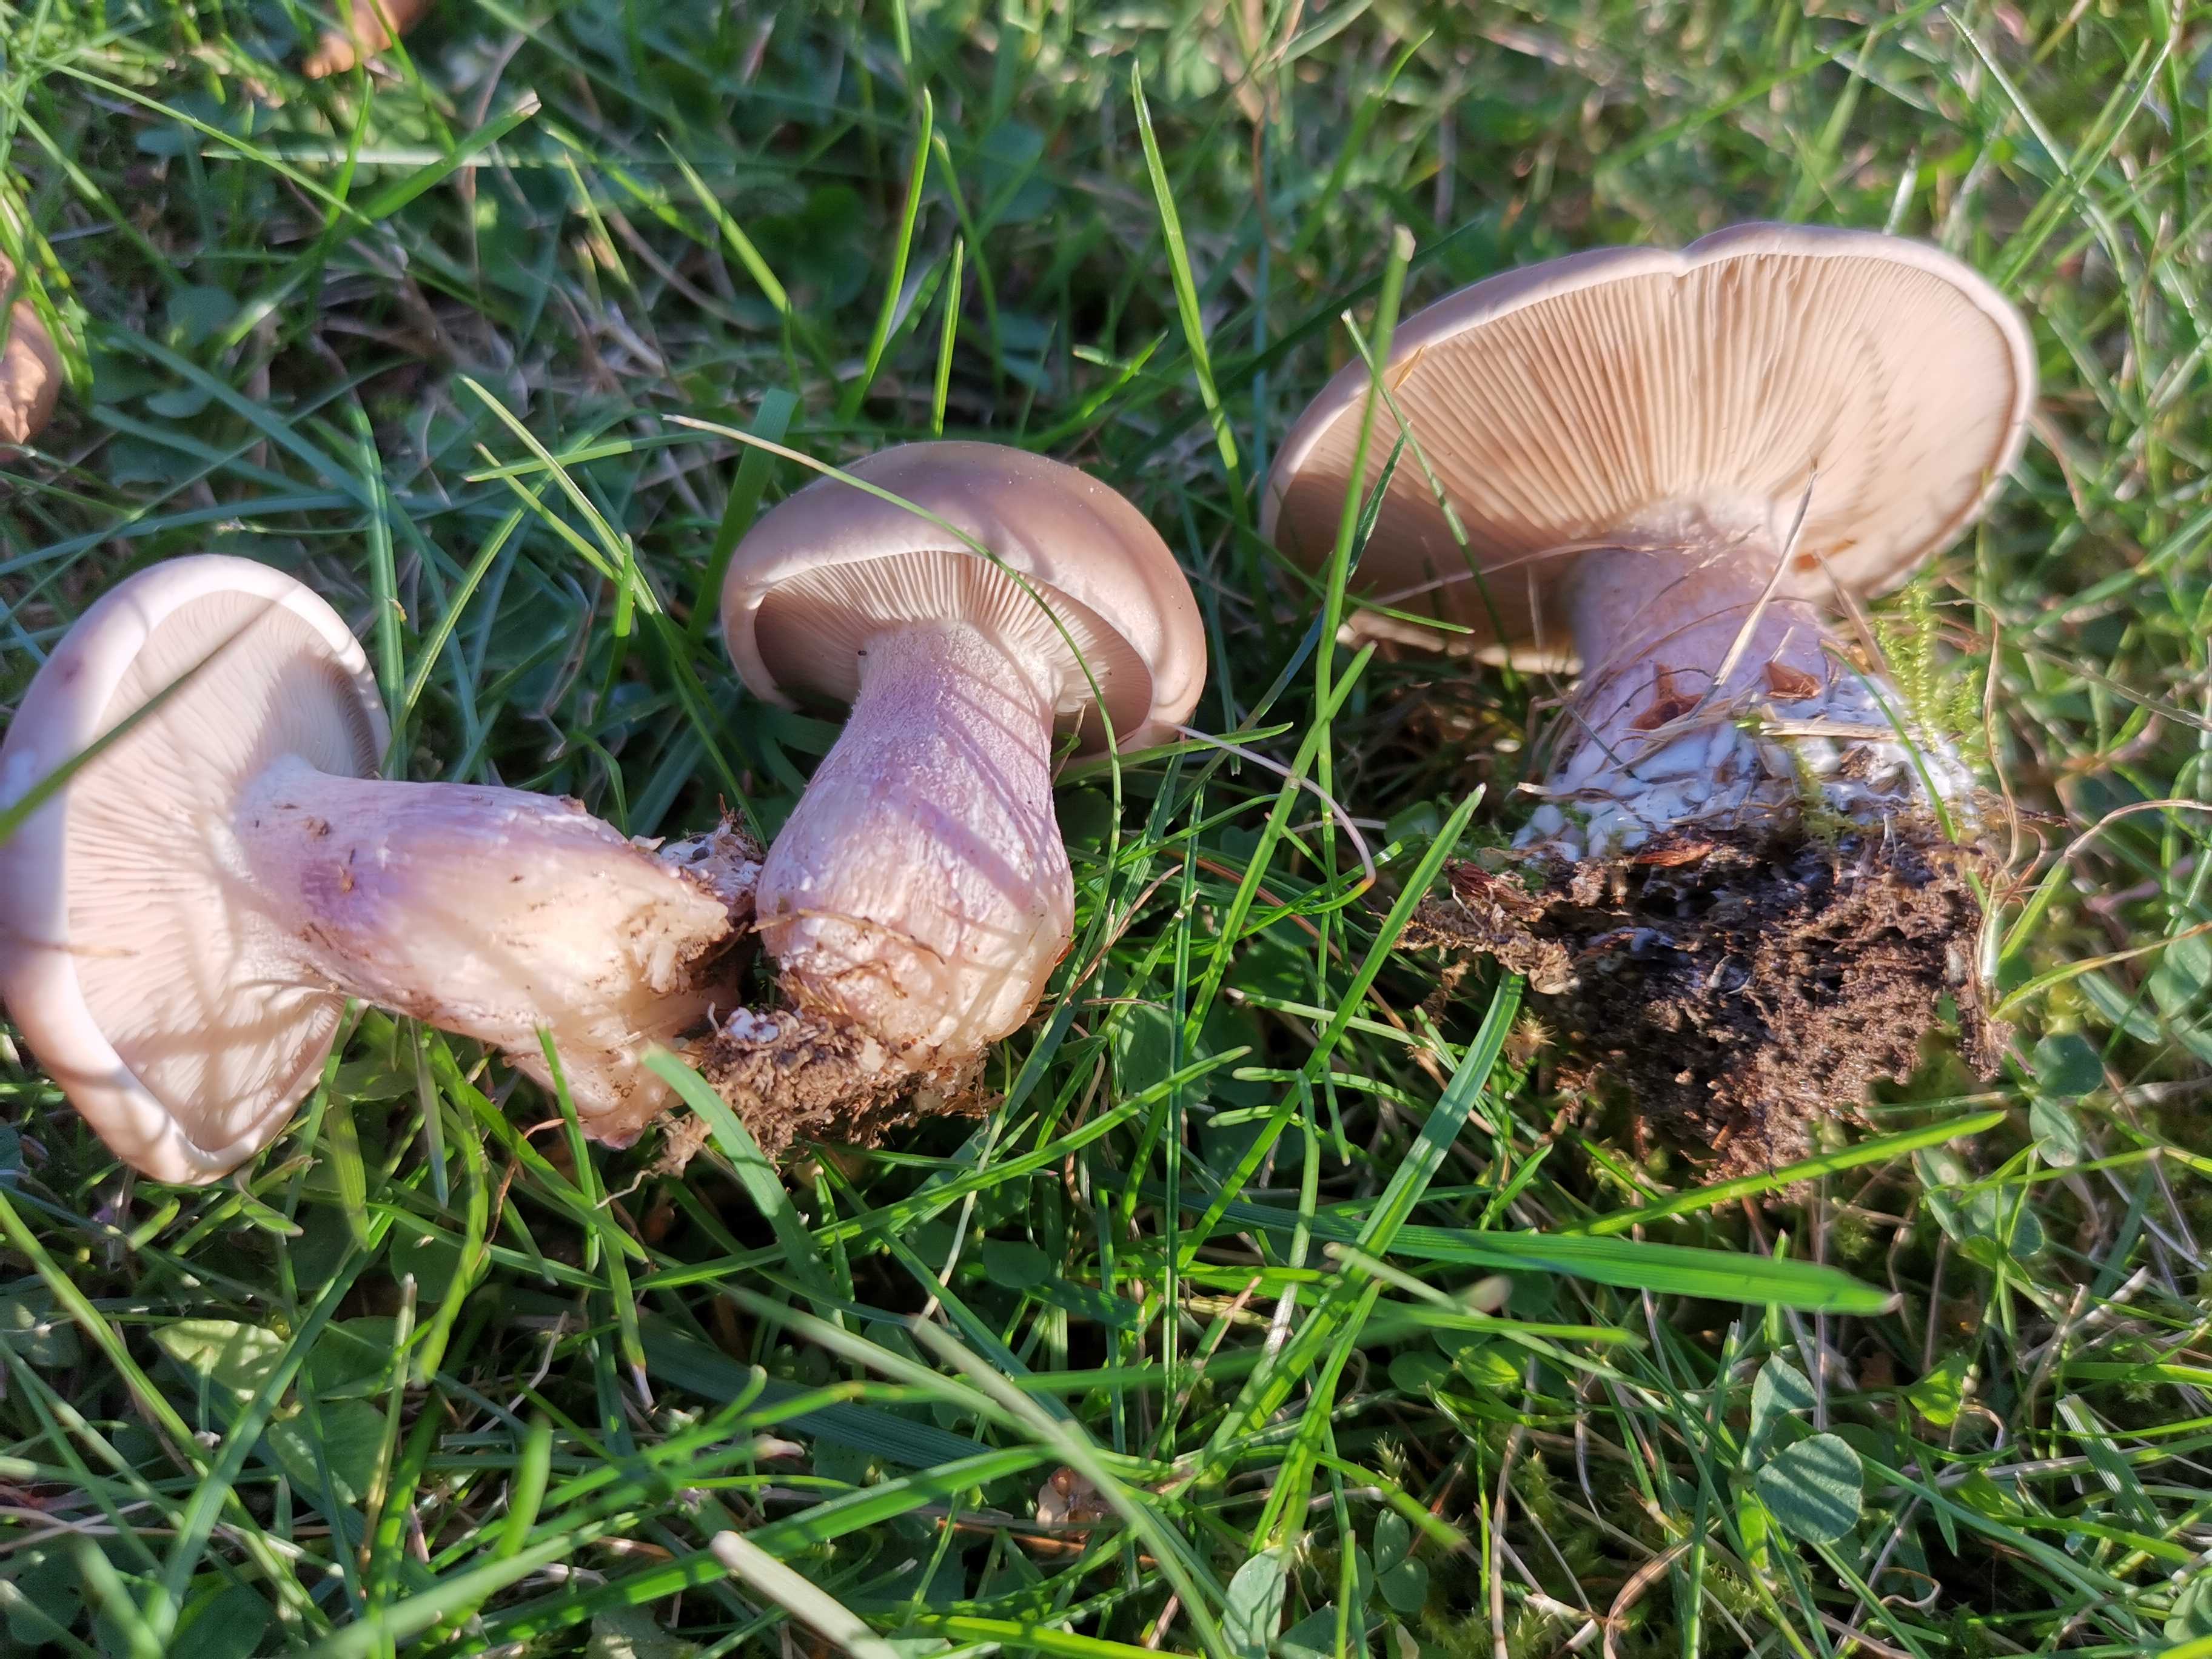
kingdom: Fungi
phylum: Basidiomycota
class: Agaricomycetes
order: Agaricales
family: Tricholomataceae
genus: Lepista
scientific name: Lepista personata
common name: bleg hekseringshat
